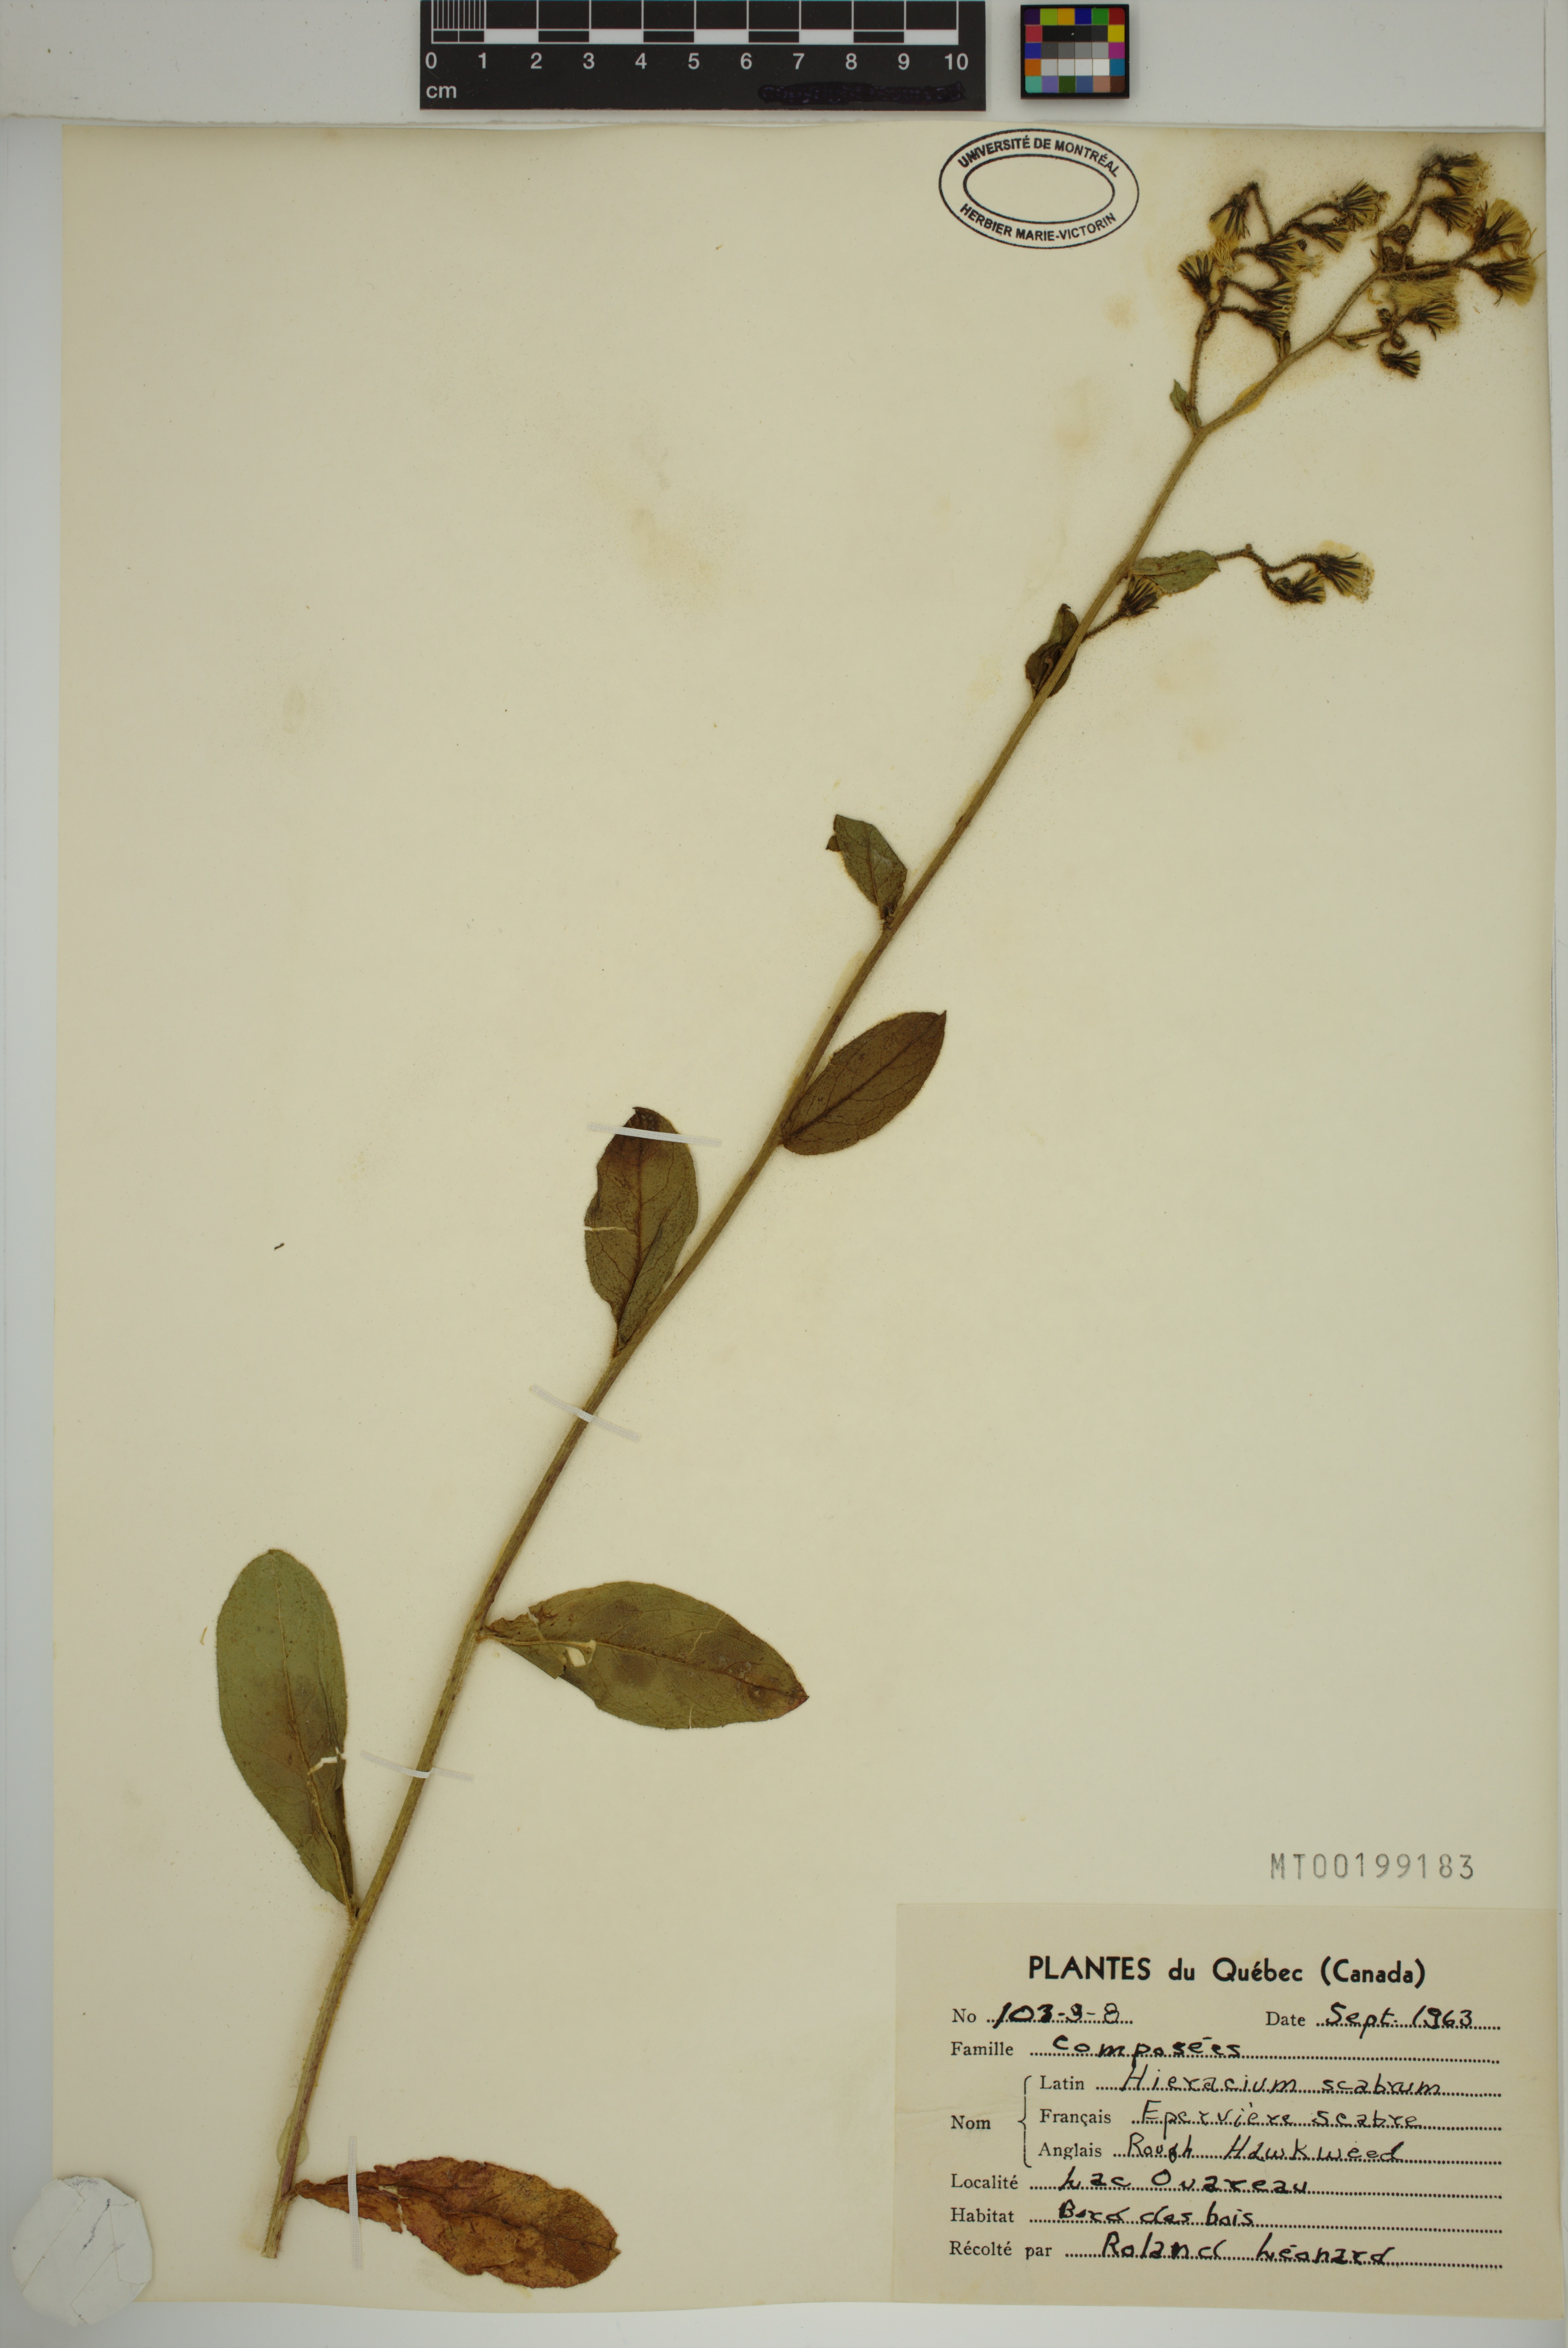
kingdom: Plantae
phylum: Tracheophyta
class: Magnoliopsida
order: Asterales
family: Asteraceae
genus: Hieracium
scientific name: Hieracium scabrum
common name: Rough hawkweed
